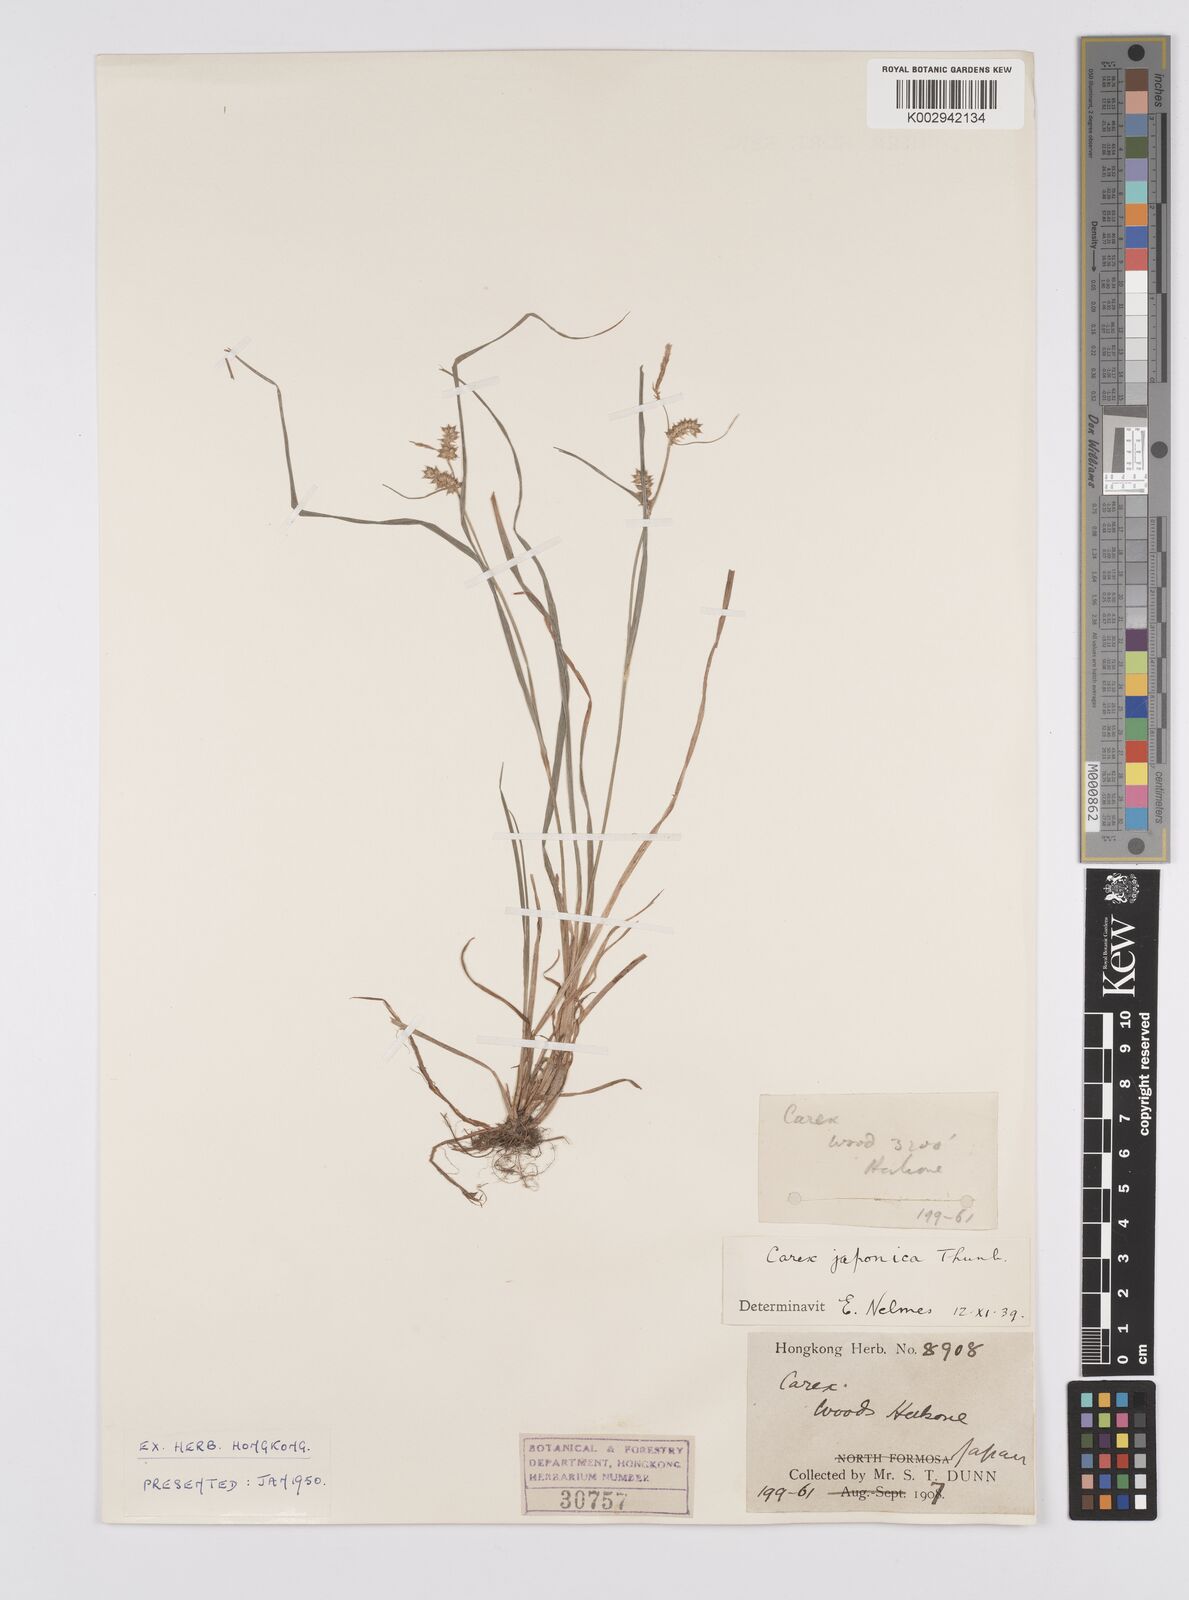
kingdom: Plantae
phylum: Tracheophyta
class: Liliopsida
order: Poales
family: Cyperaceae
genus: Carex
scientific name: Carex japonica
